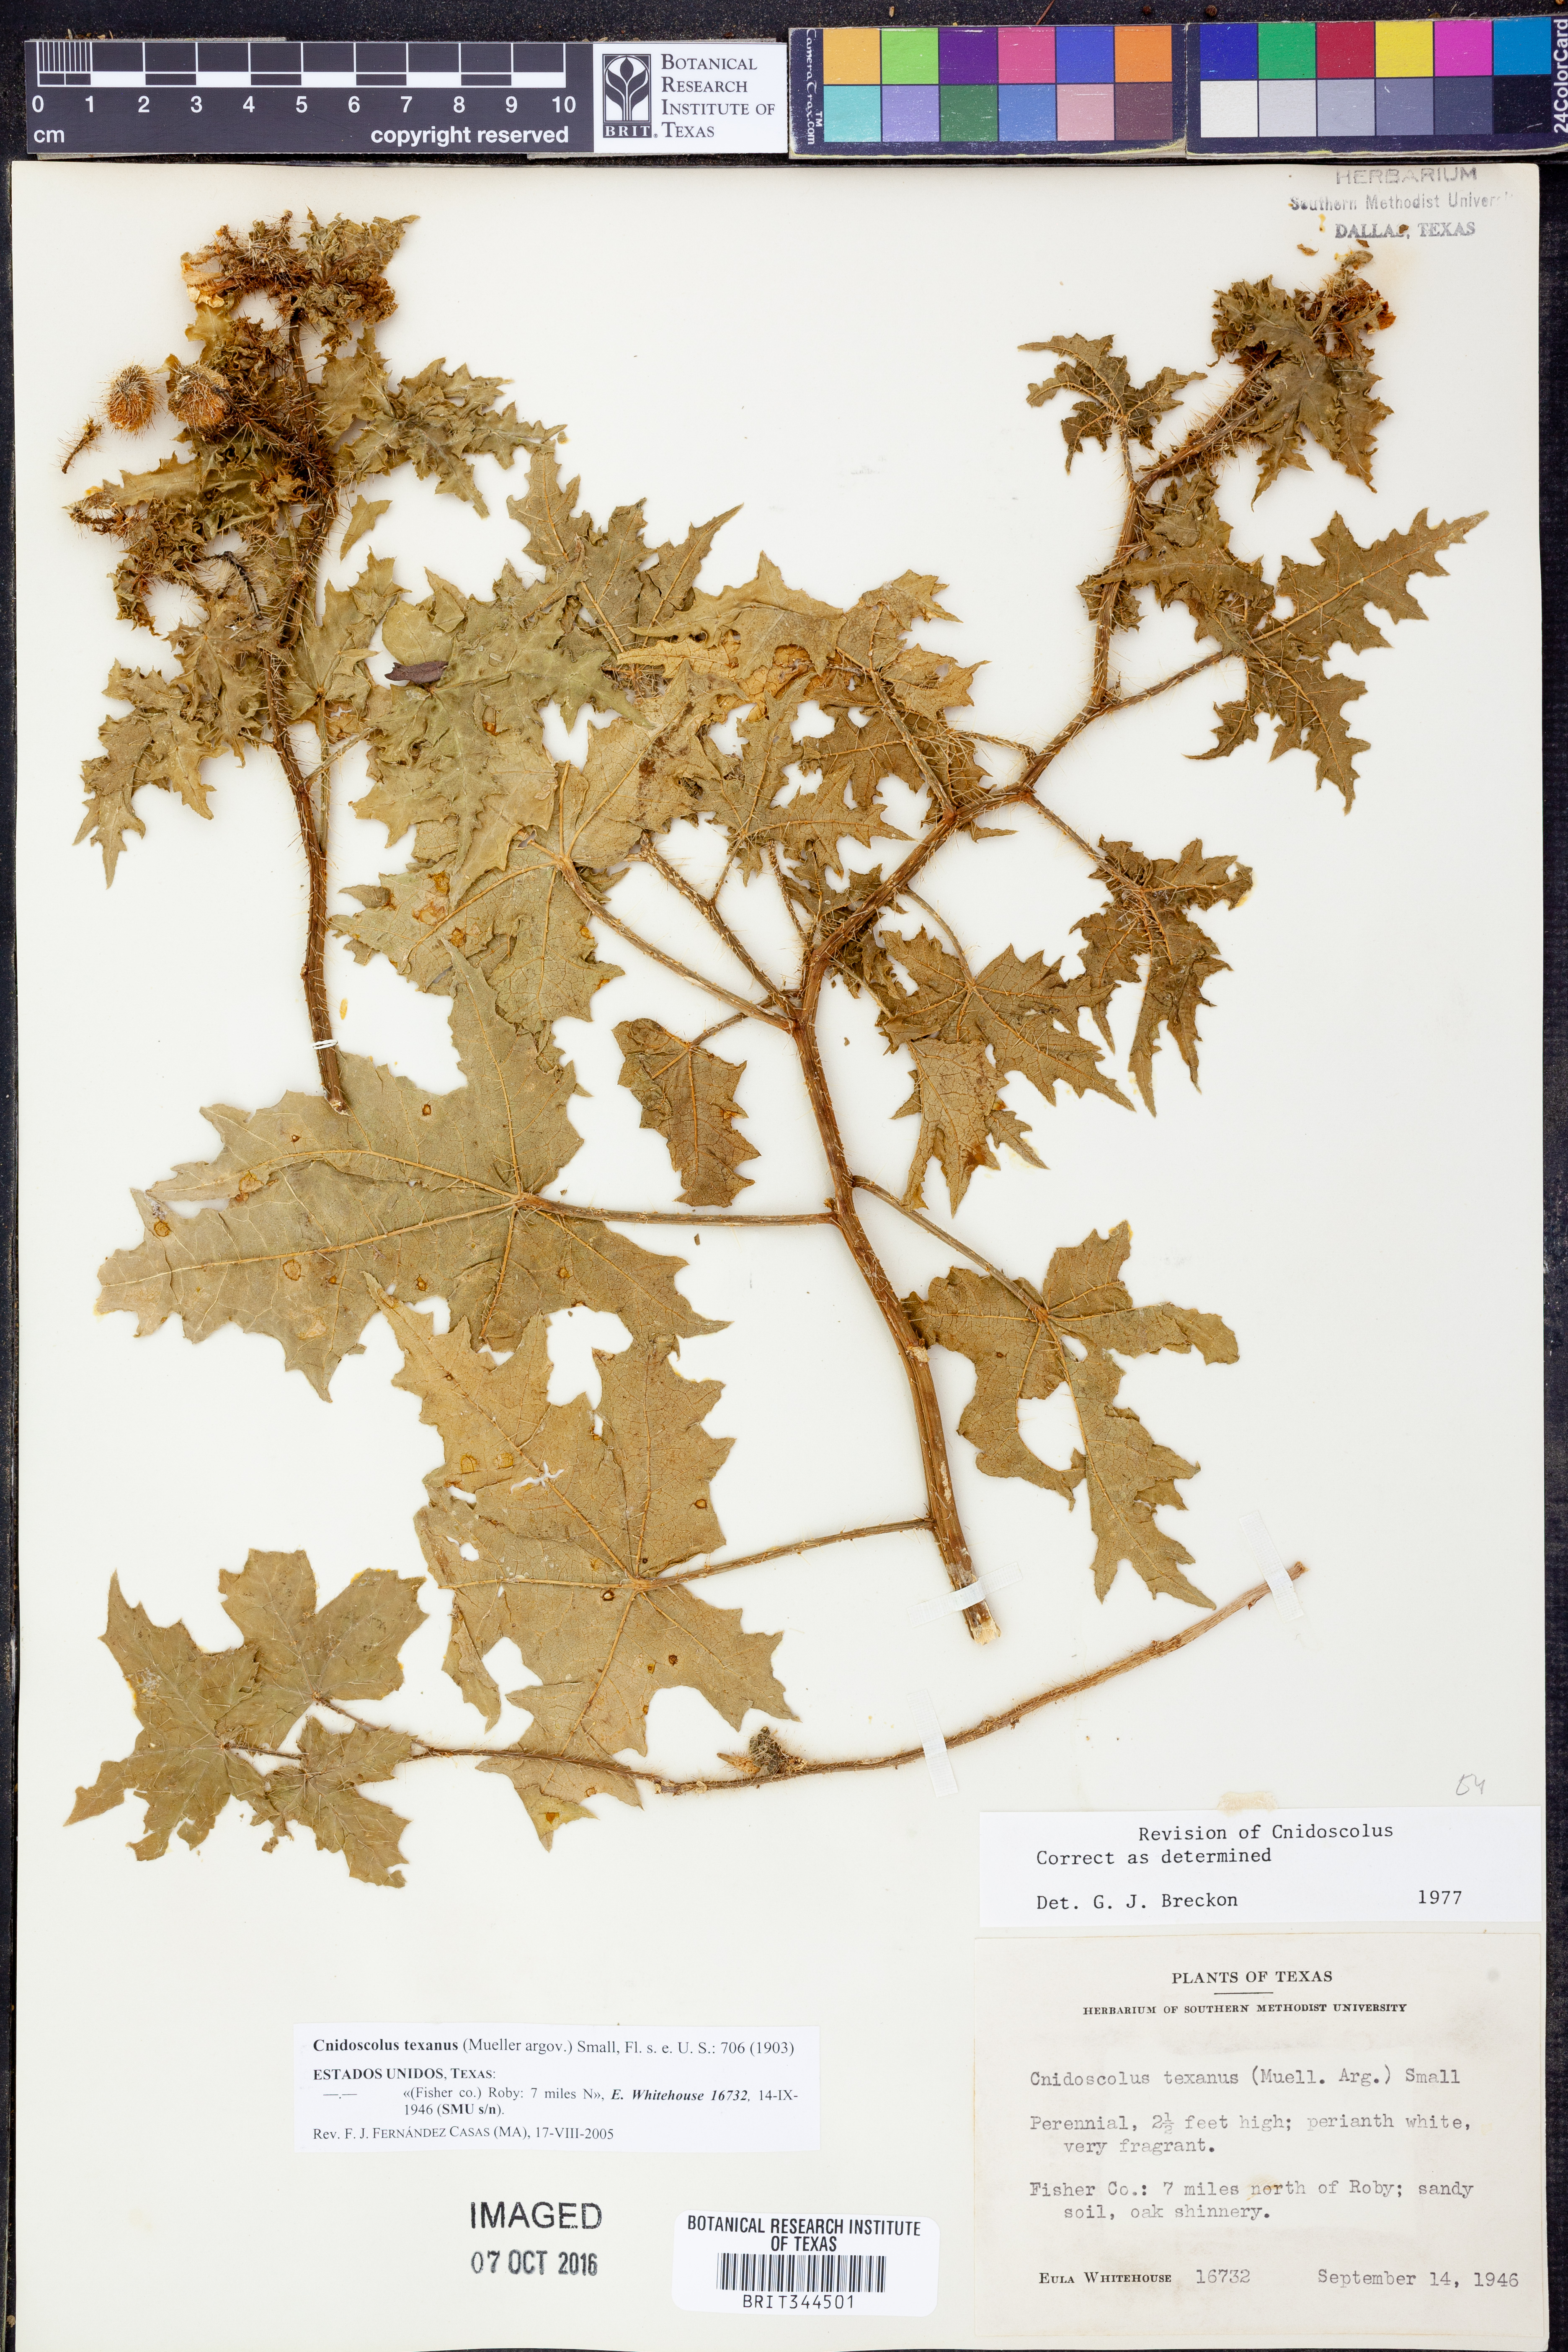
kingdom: Plantae
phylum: Tracheophyta
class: Magnoliopsida
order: Malpighiales
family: Euphorbiaceae
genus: Cnidoscolus
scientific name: Cnidoscolus texanus
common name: Texas bull-nettle
